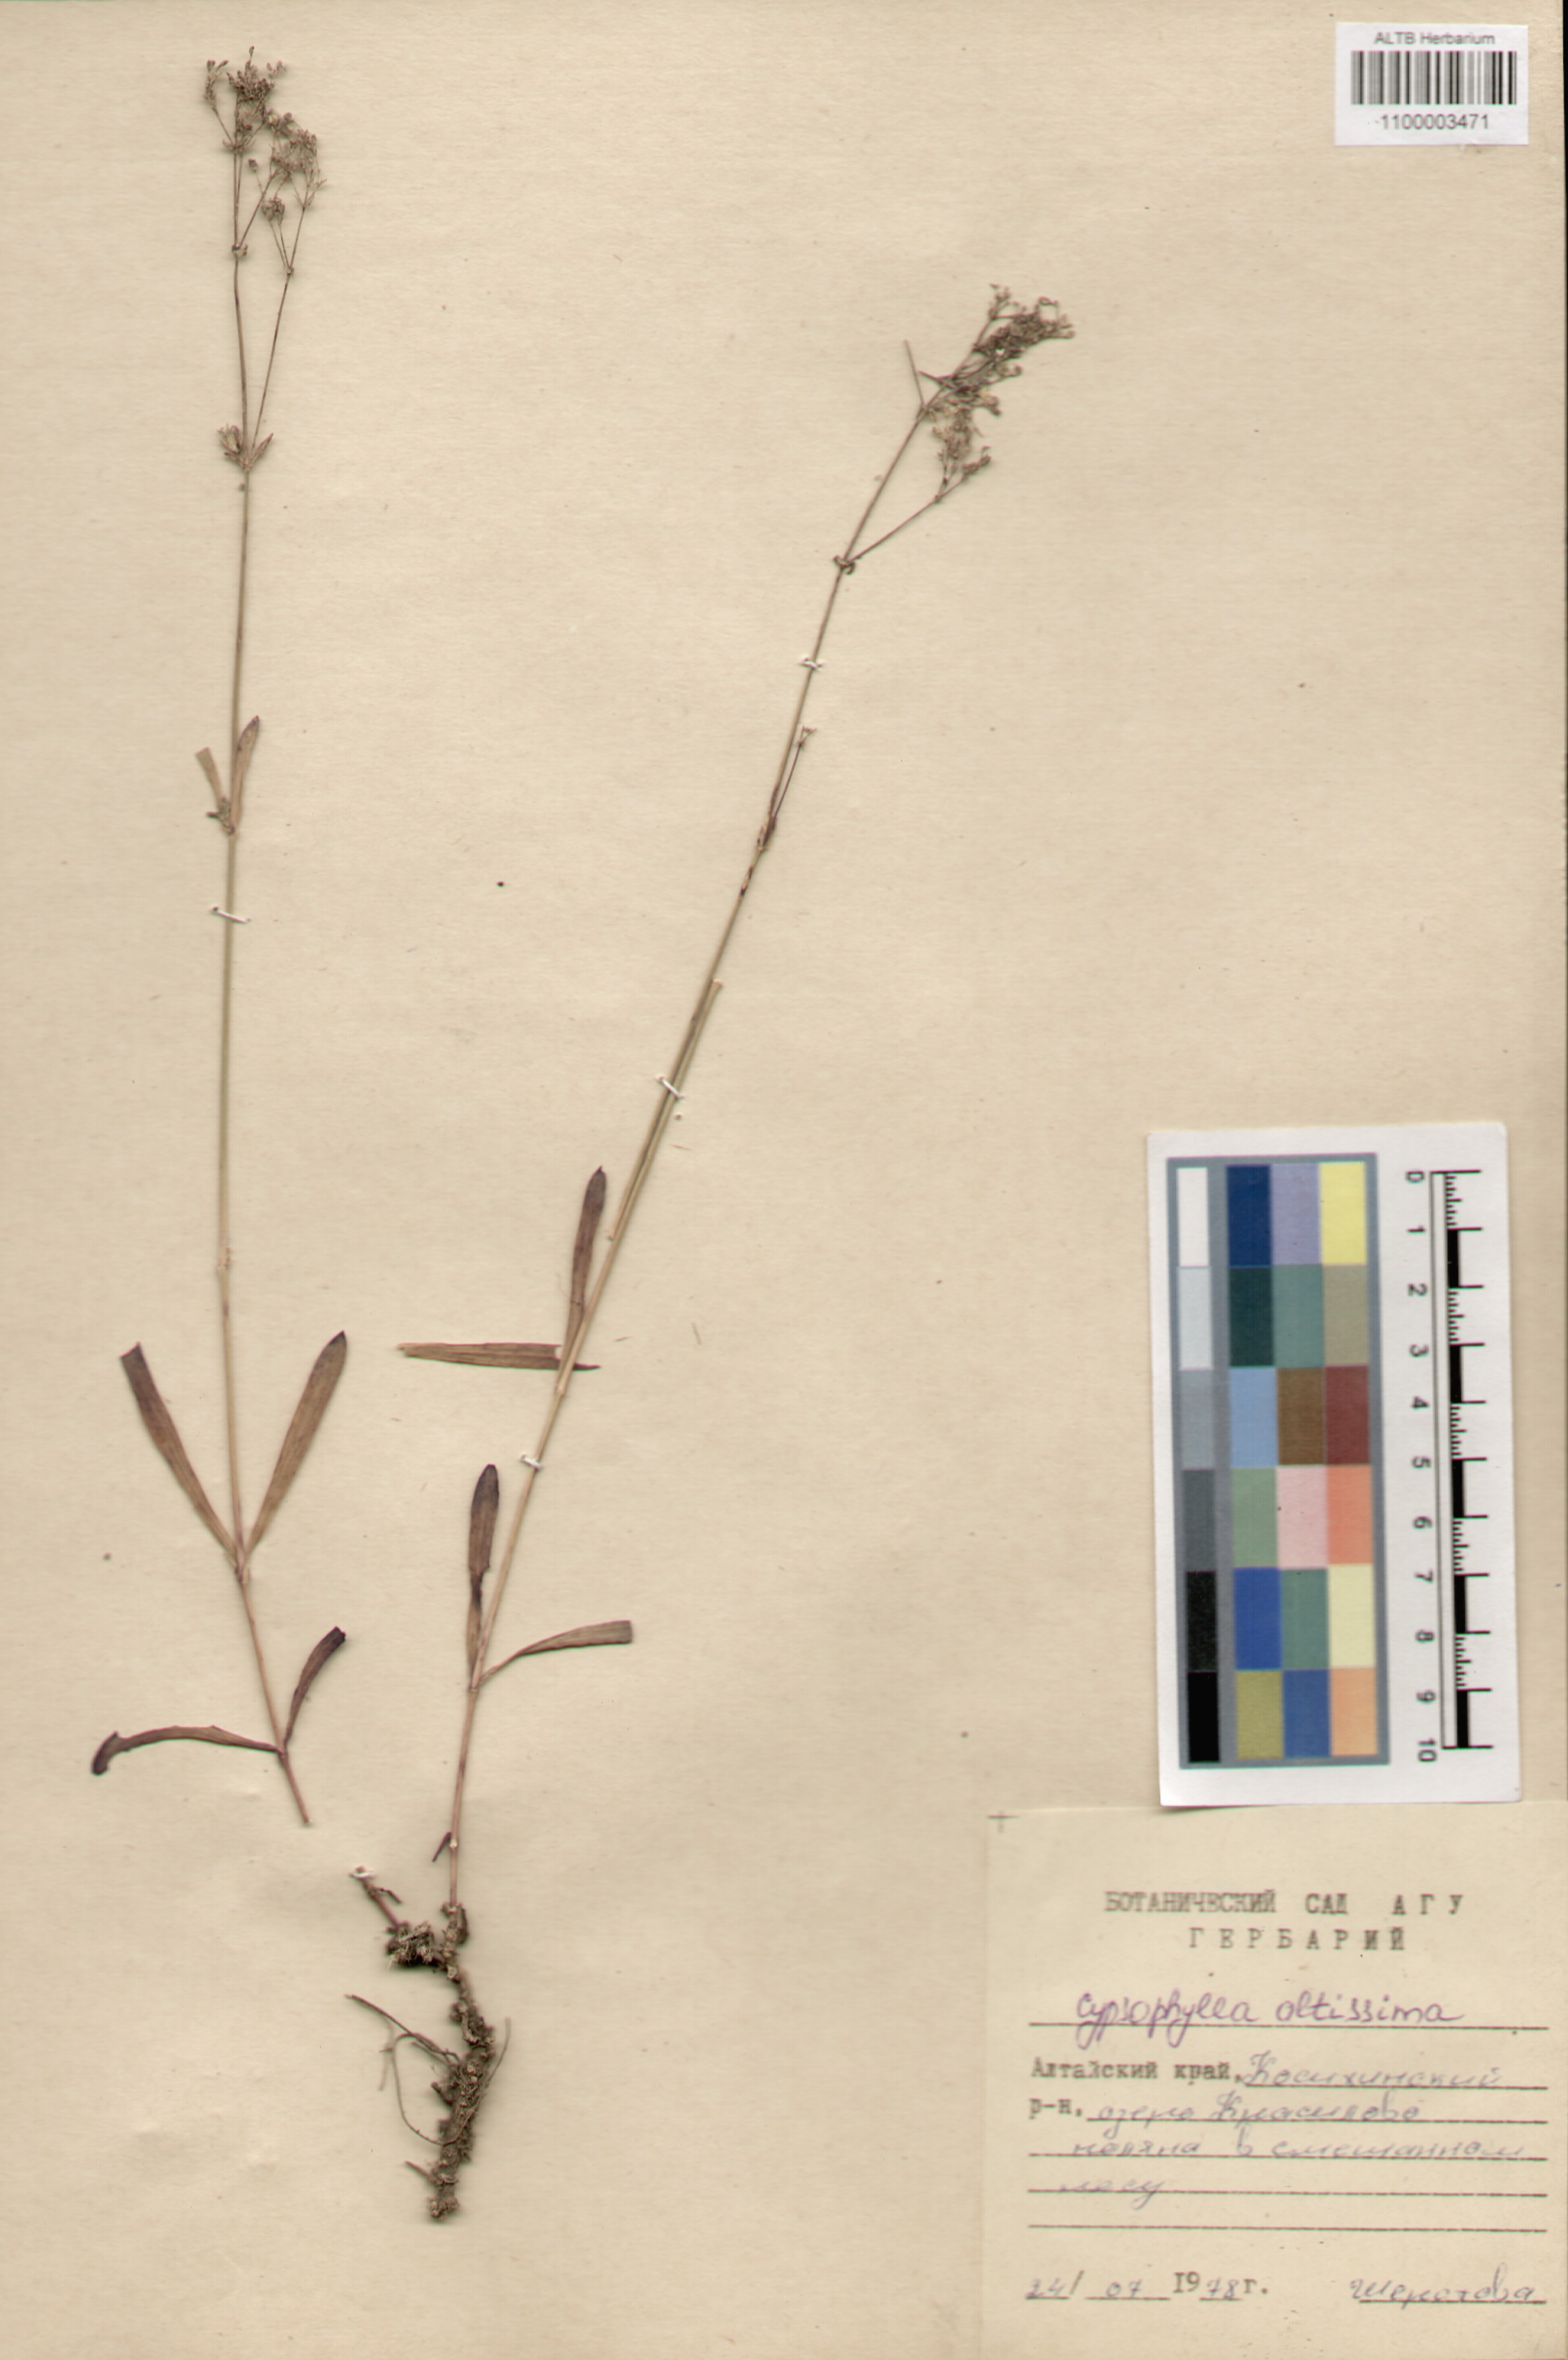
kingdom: Plantae
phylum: Tracheophyta
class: Magnoliopsida
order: Caryophyllales
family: Caryophyllaceae
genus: Gypsophila
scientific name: Gypsophila altissima
